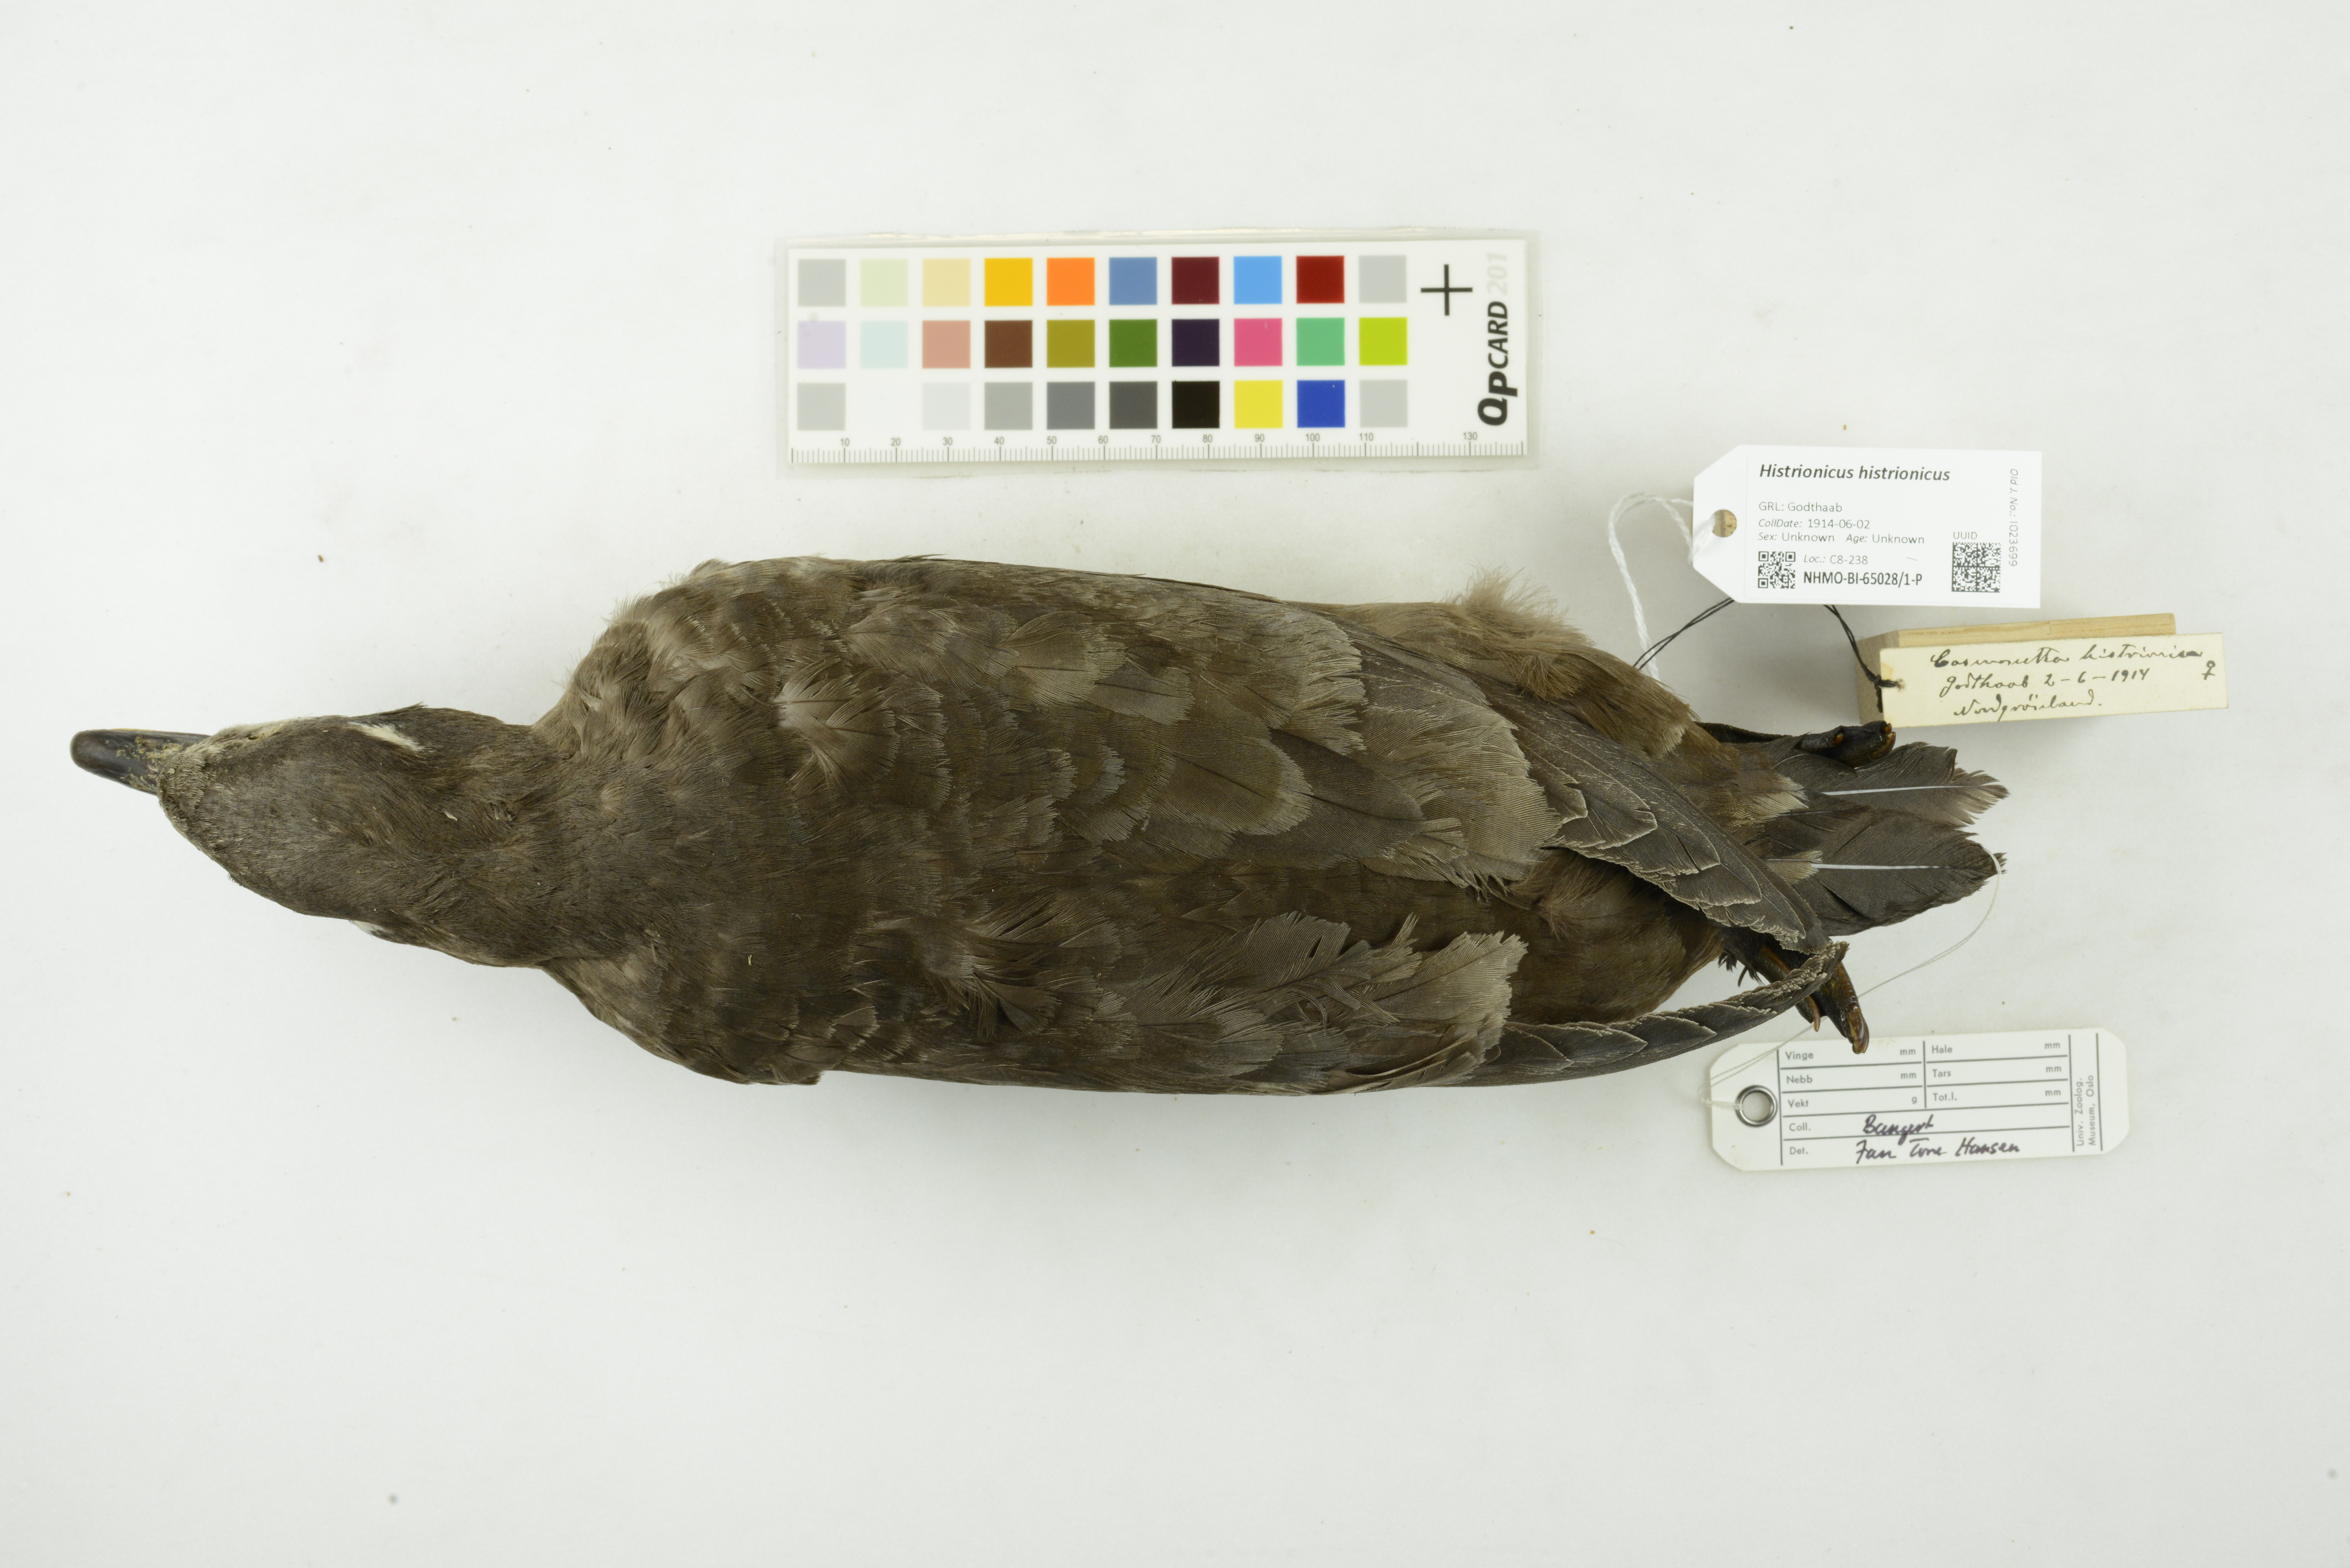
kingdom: Animalia
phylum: Chordata
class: Aves
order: Anseriformes
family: Anatidae
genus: Histrionicus
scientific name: Histrionicus histrionicus
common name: Harlequin duck
